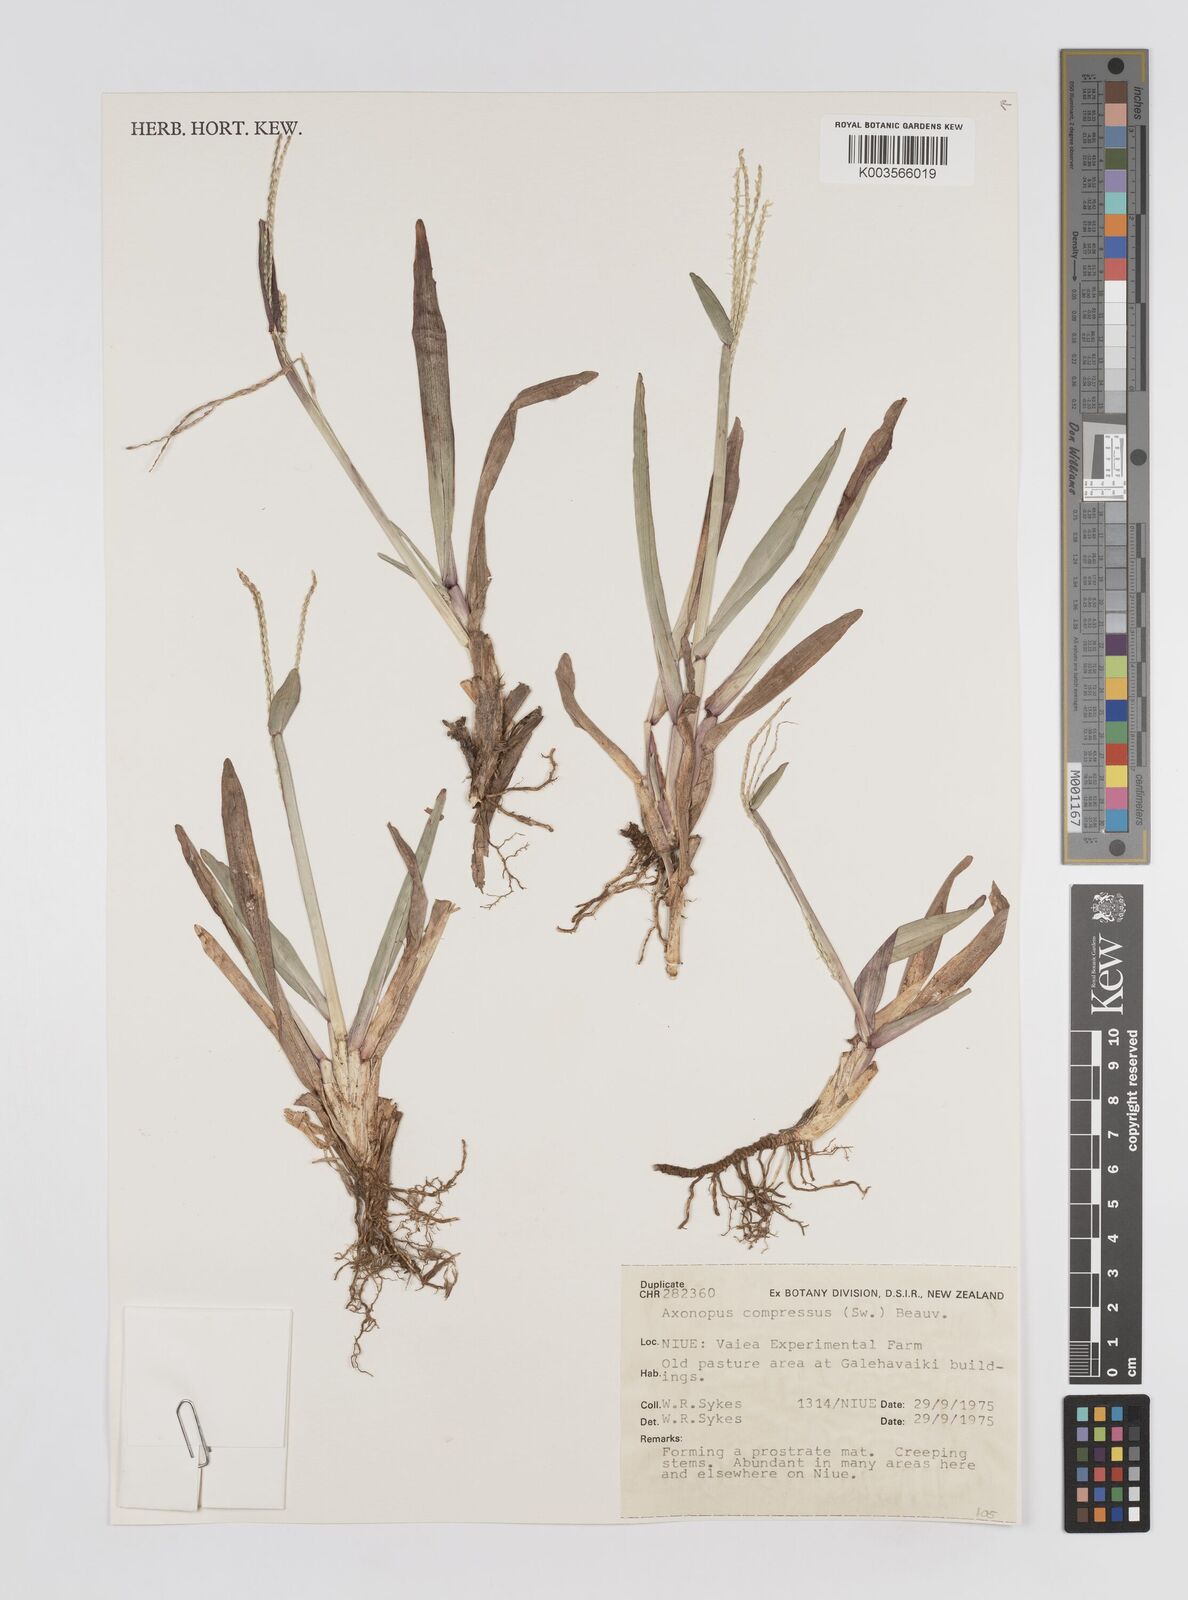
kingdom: Plantae
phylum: Tracheophyta
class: Liliopsida
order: Poales
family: Poaceae
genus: Axonopus
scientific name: Axonopus compressus
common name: American carpet grass
